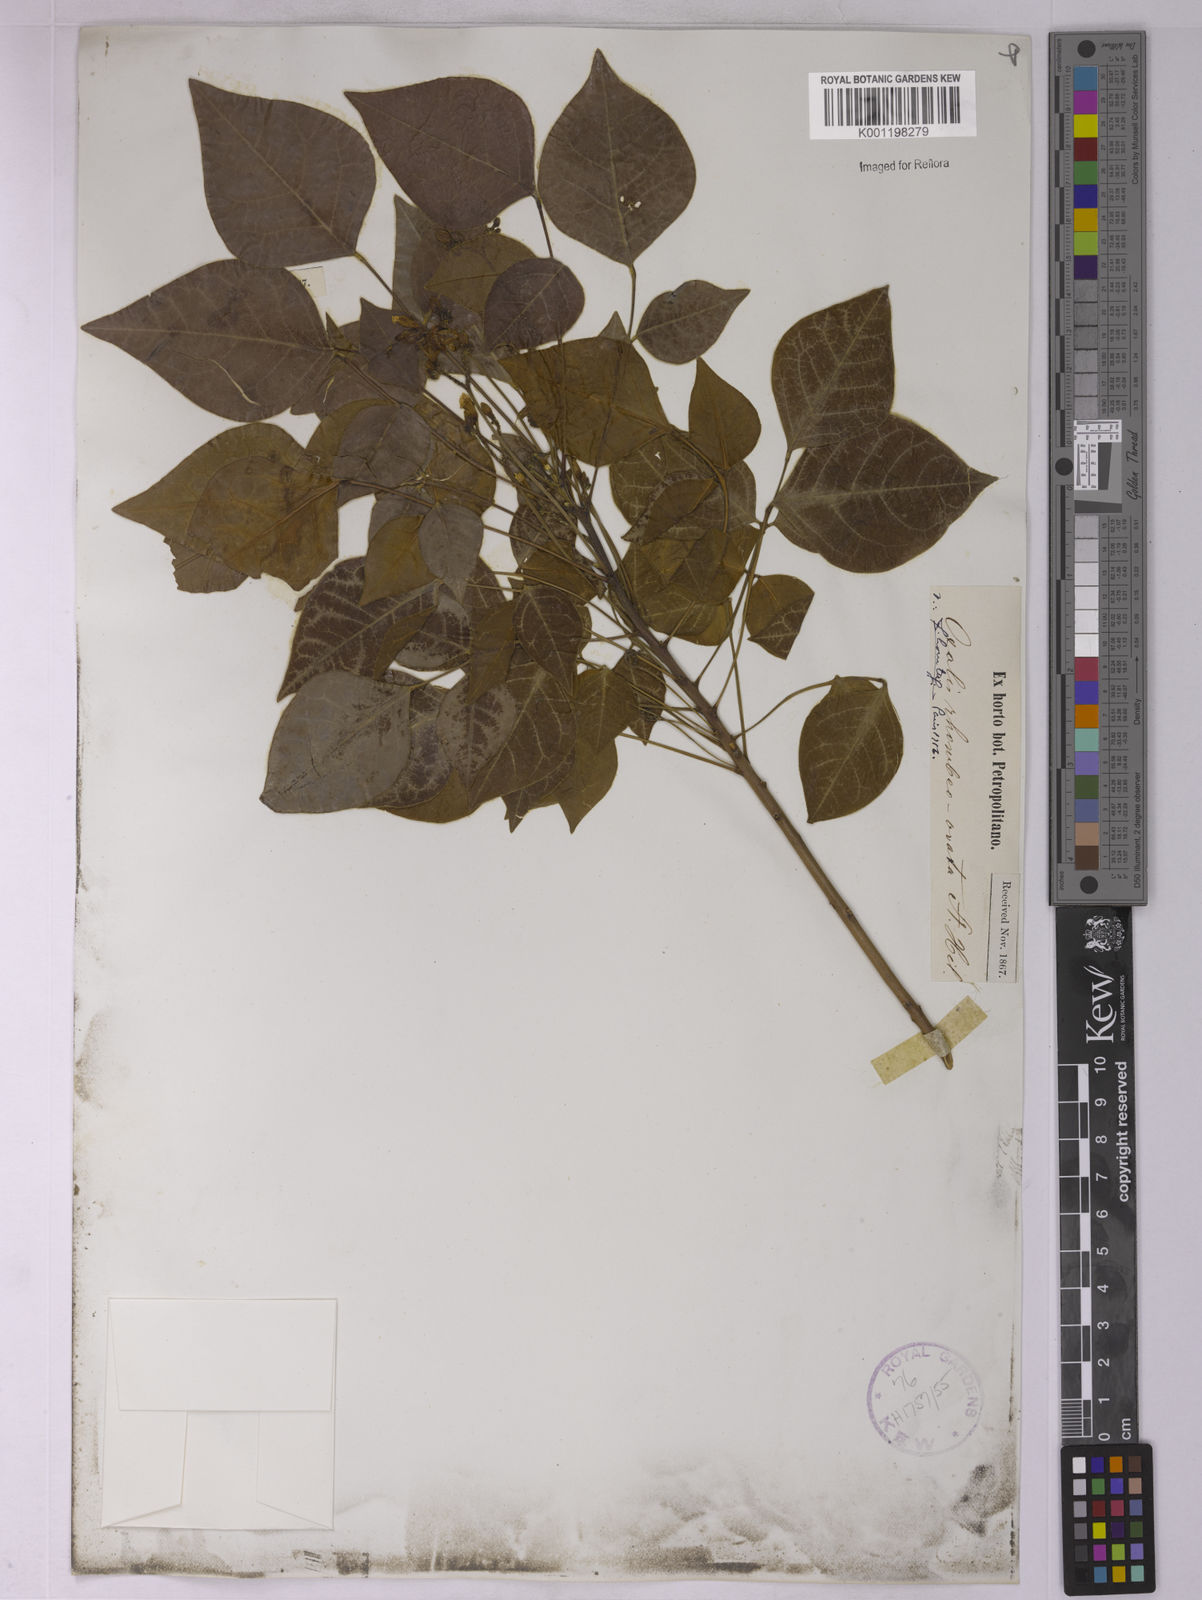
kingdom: Plantae
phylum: Tracheophyta
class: Magnoliopsida
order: Oxalidales
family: Oxalidaceae
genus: Oxalis
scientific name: Oxalis rhombeo-ovata
